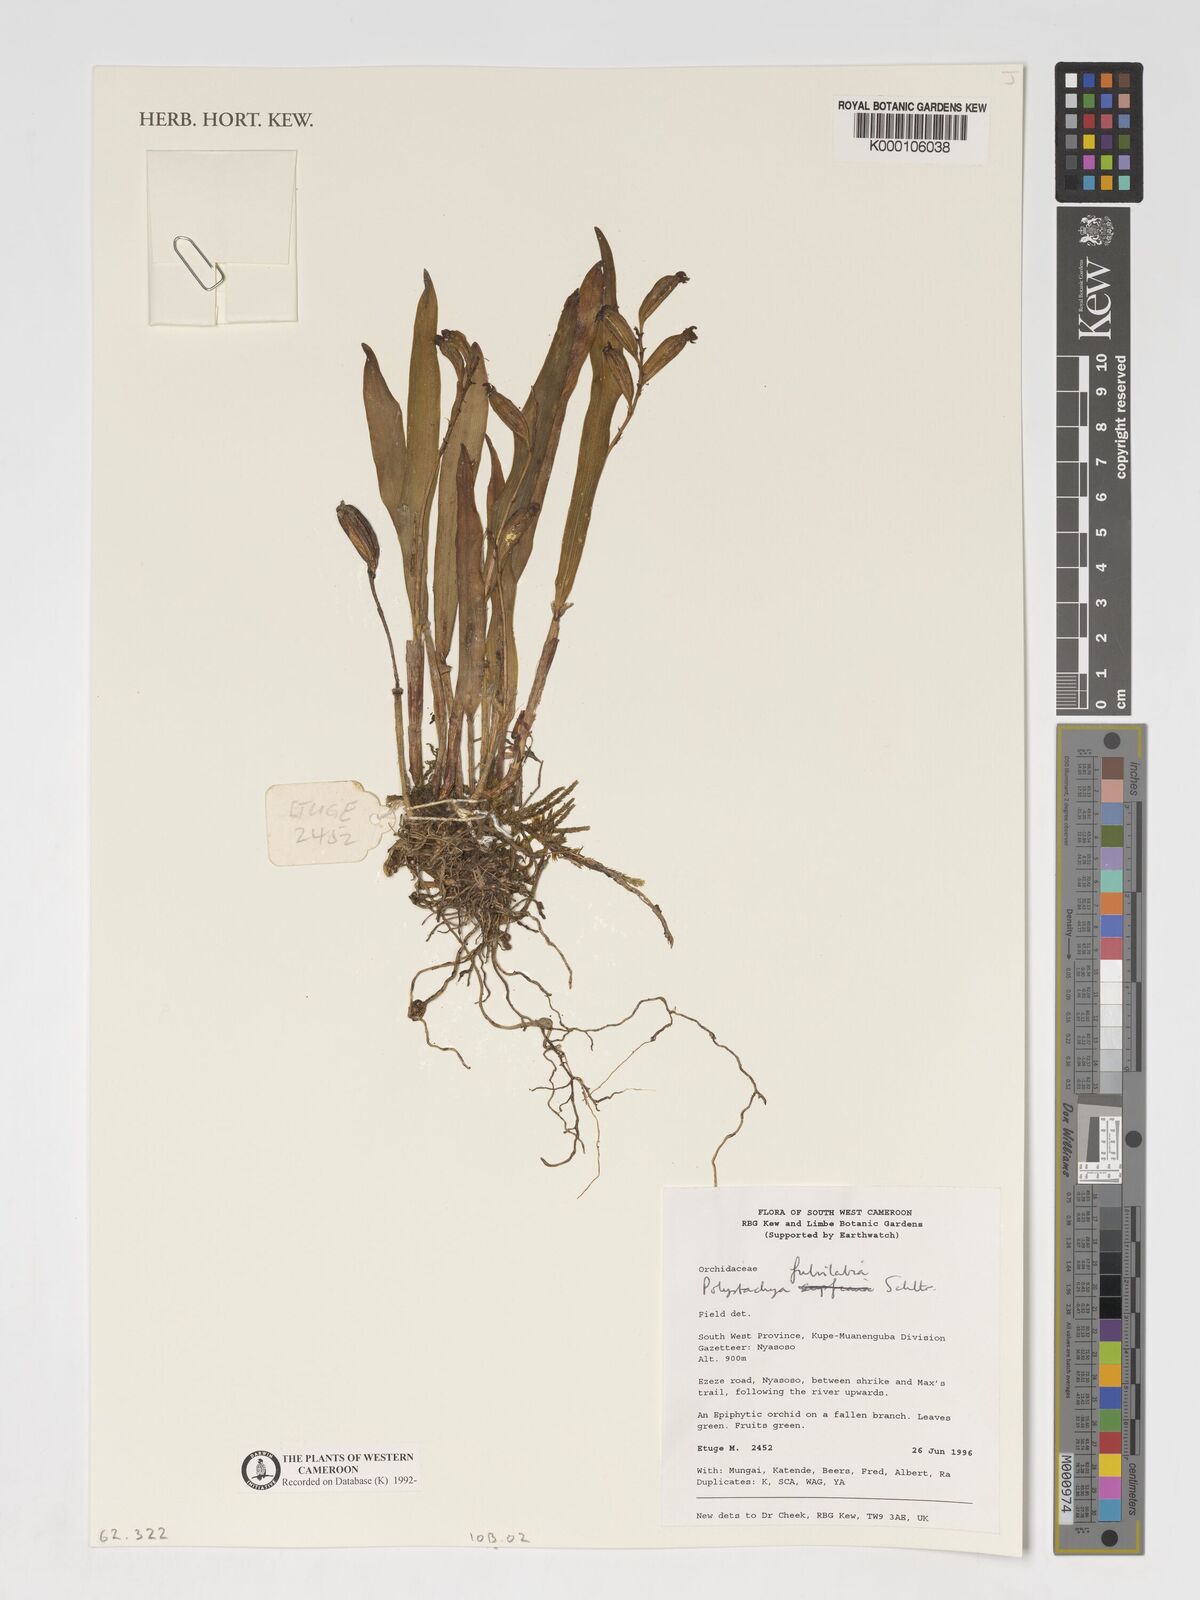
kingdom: Plantae
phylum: Tracheophyta
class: Liliopsida
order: Asparagales
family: Orchidaceae
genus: Polystachya
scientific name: Polystachya fulvilabia
